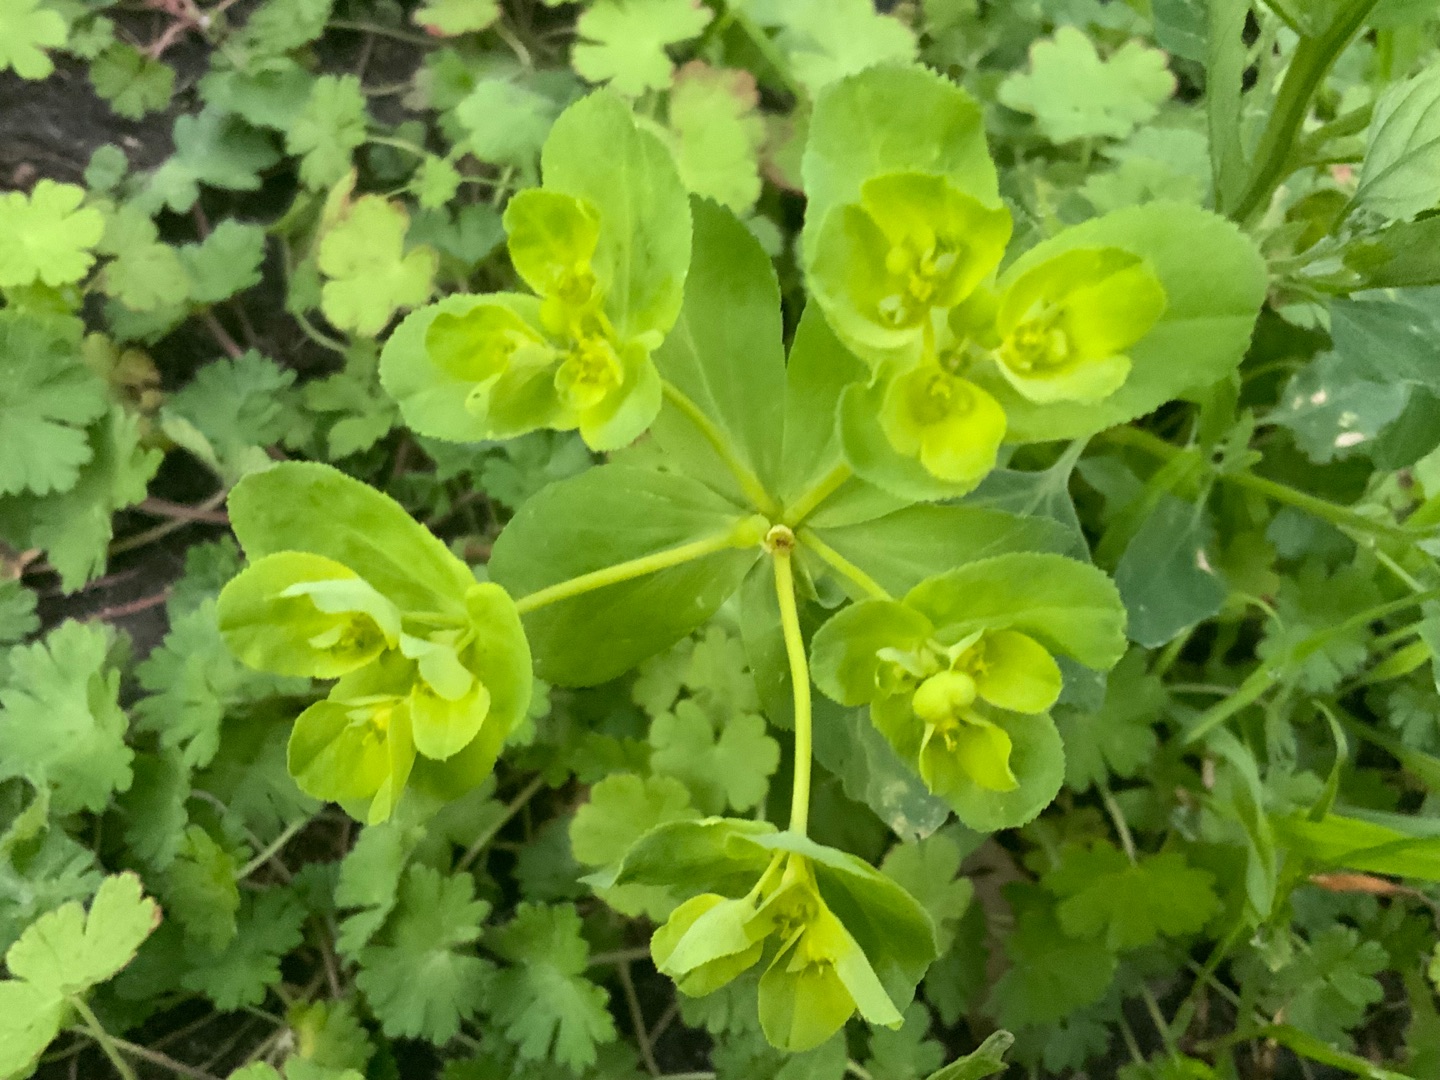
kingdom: Plantae
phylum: Tracheophyta
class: Magnoliopsida
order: Malpighiales
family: Euphorbiaceae
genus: Euphorbia
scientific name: Euphorbia helioscopia
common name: Skærm-vortemælk
